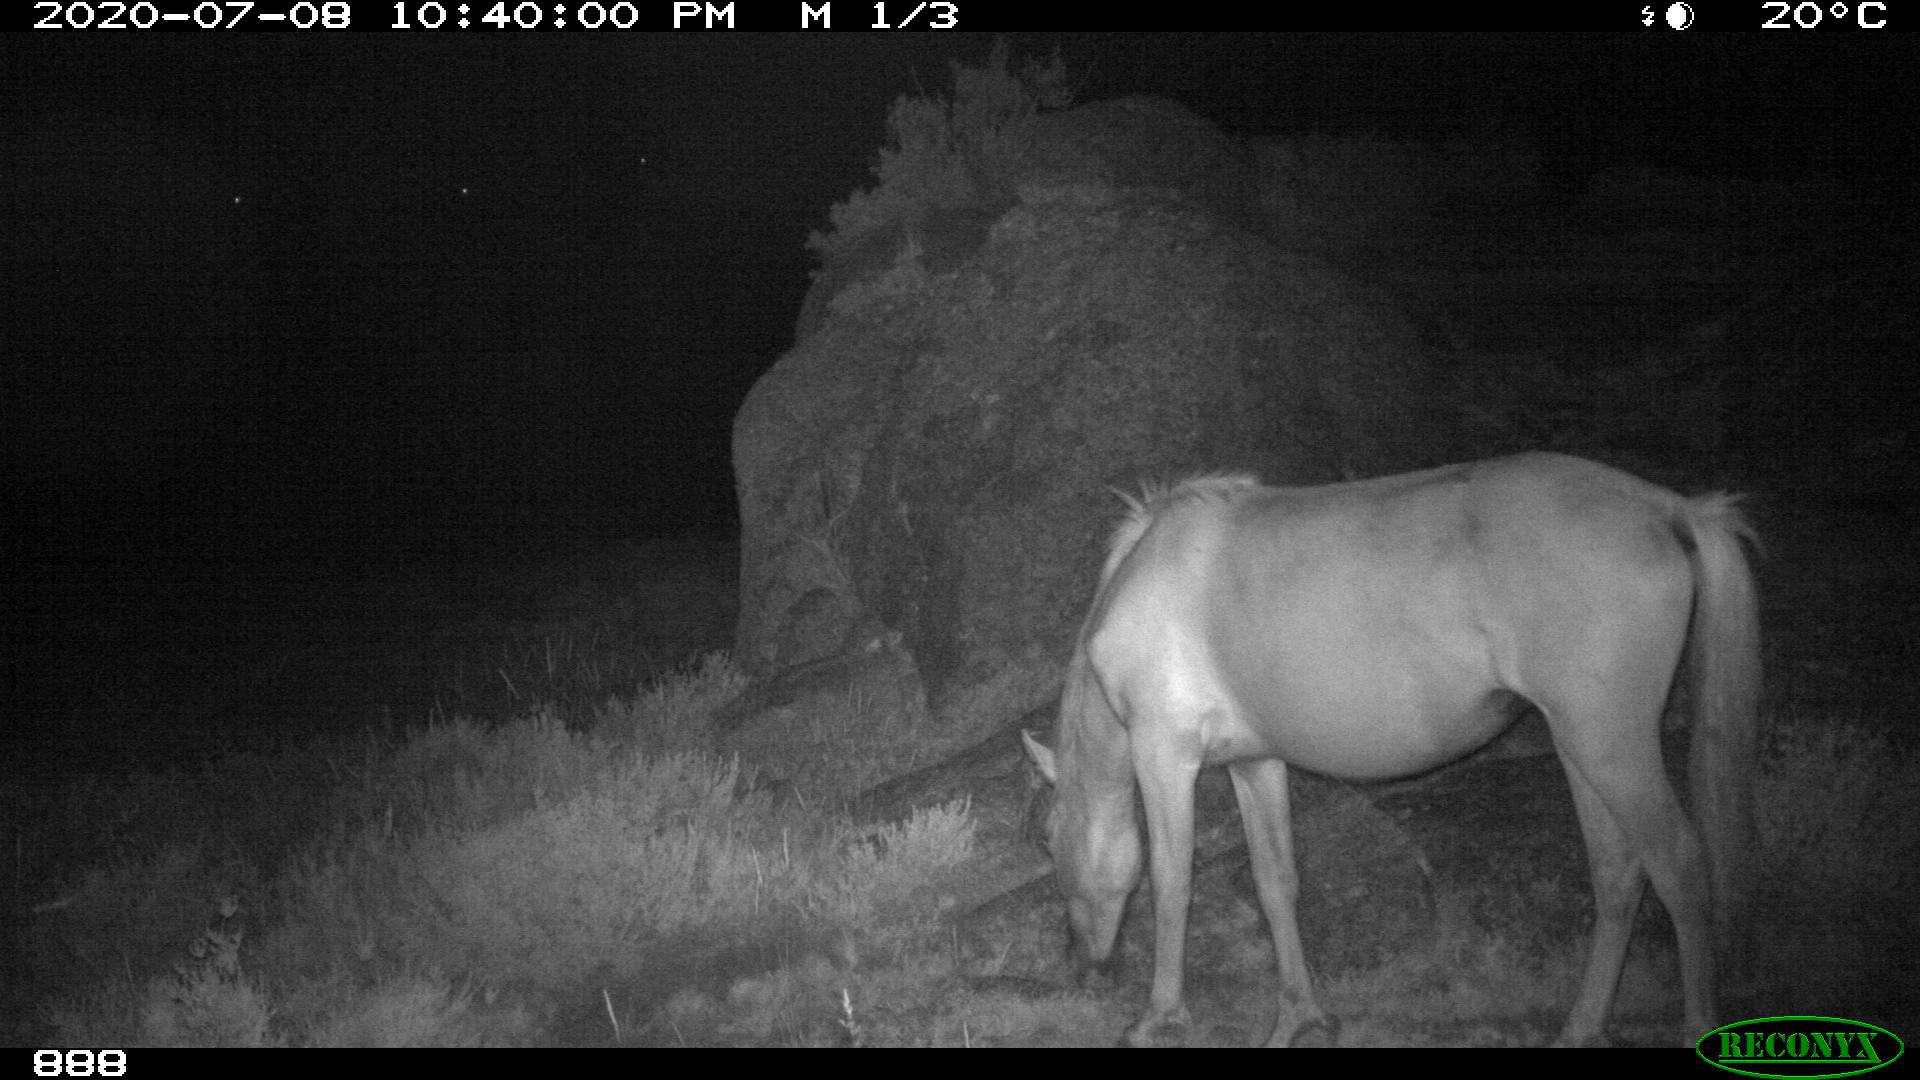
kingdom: Animalia
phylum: Chordata
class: Mammalia
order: Perissodactyla
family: Equidae
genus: Equus
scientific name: Equus caballus
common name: Horse
